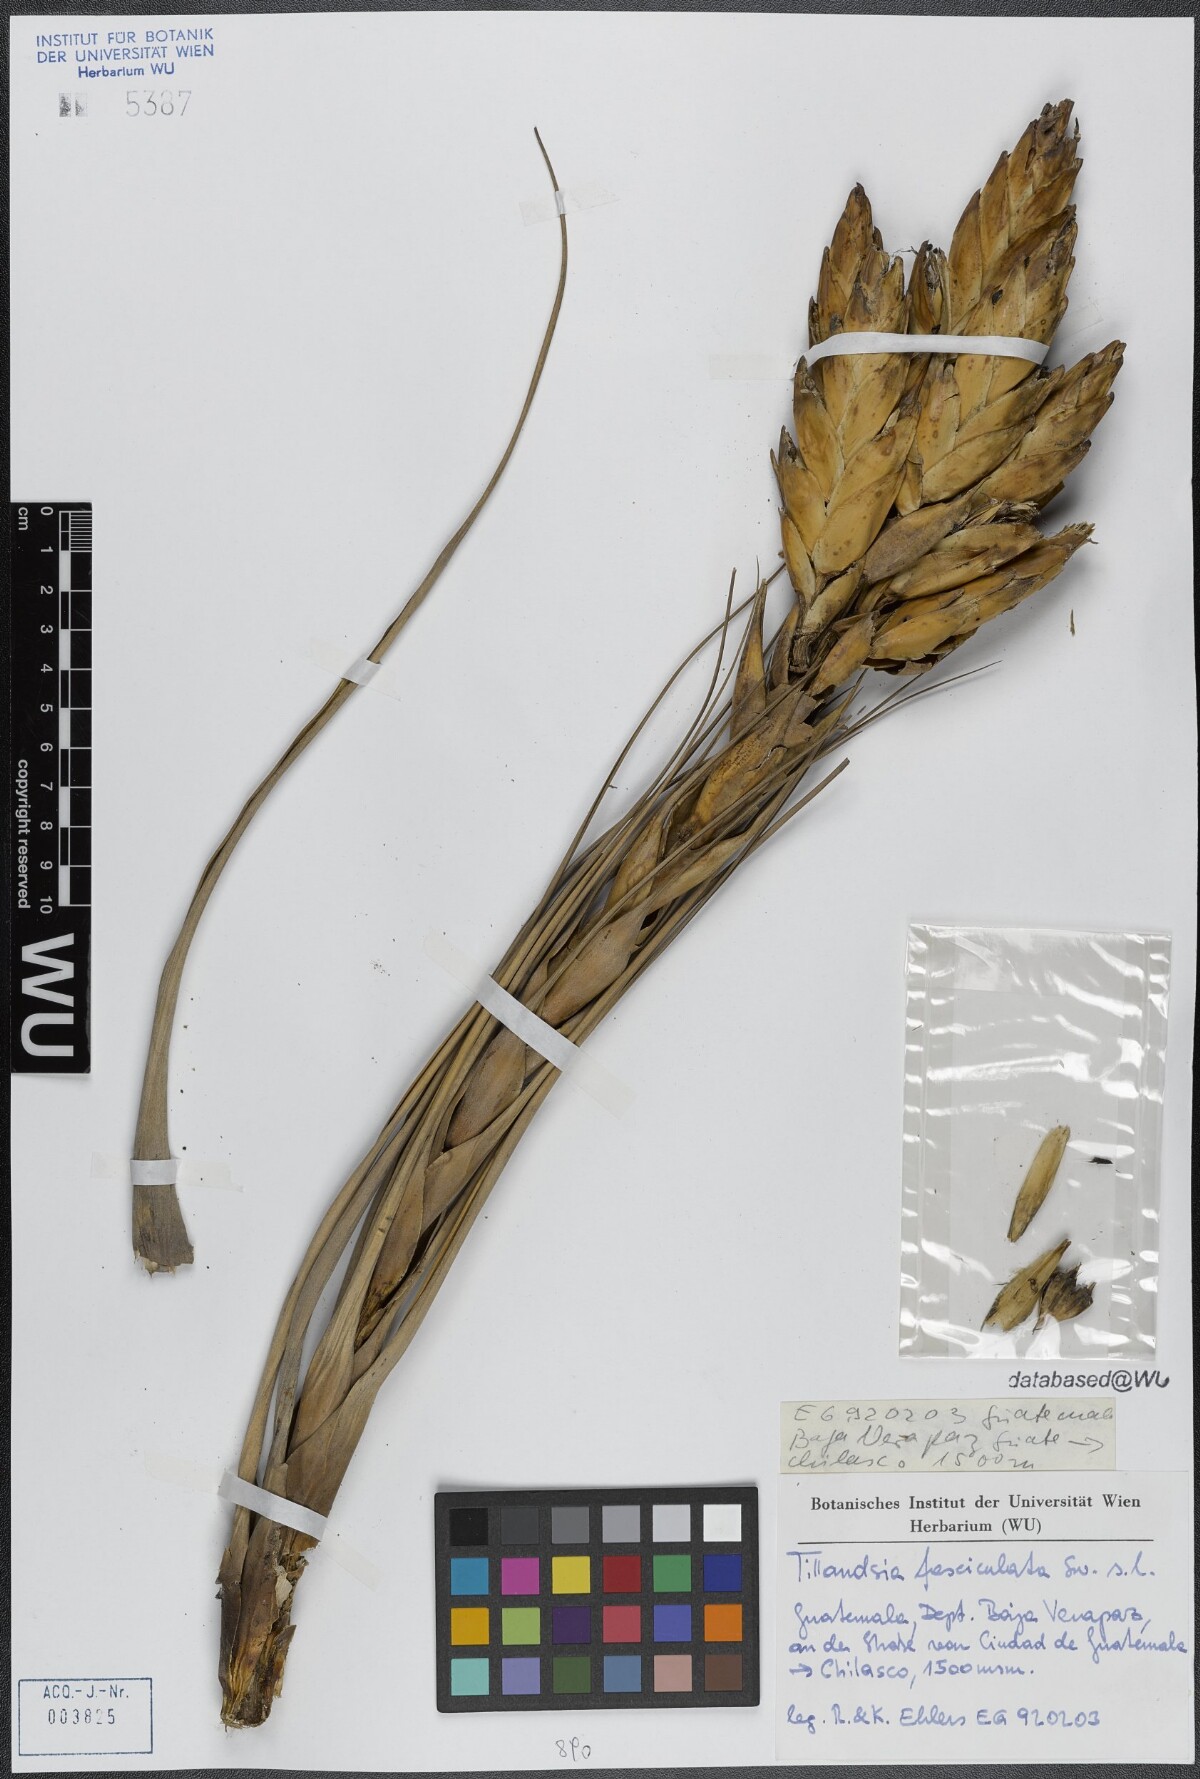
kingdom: Plantae
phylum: Tracheophyta
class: Liliopsida
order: Poales
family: Bromeliaceae
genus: Tillandsia
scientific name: Tillandsia fasciculata
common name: Giant airplant
